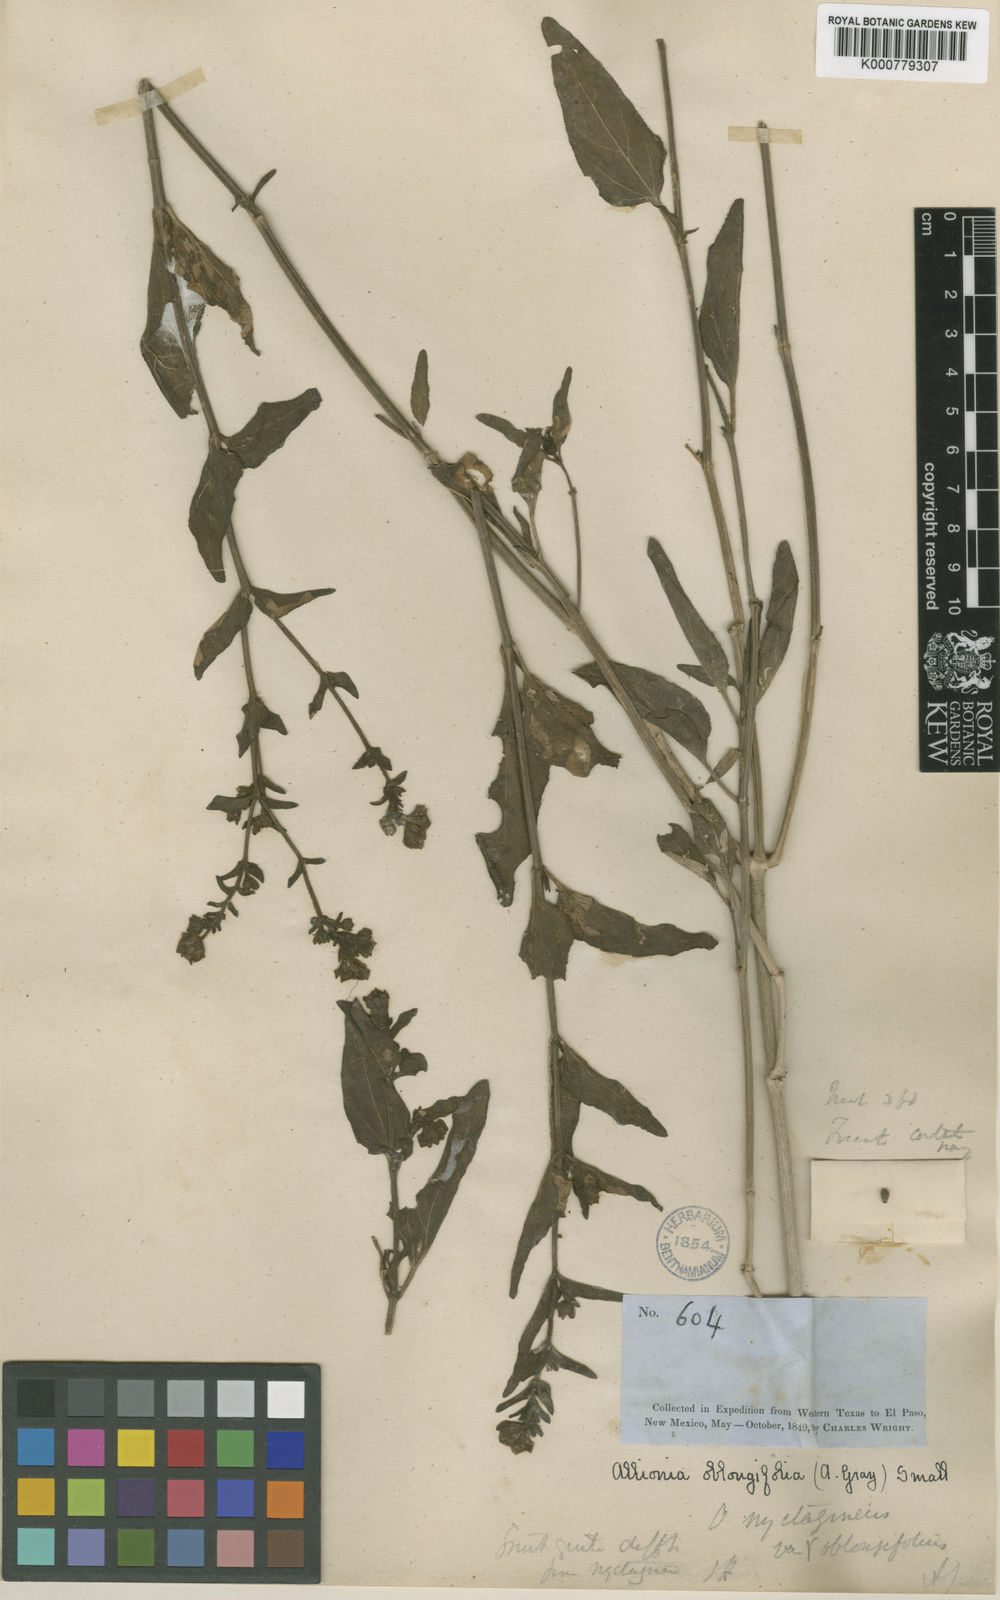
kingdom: Plantae
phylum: Tracheophyta
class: Magnoliopsida
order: Caryophyllales
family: Nyctaginaceae
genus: Mirabilis
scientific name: Mirabilis nyctaginea
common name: Umbrella wort
